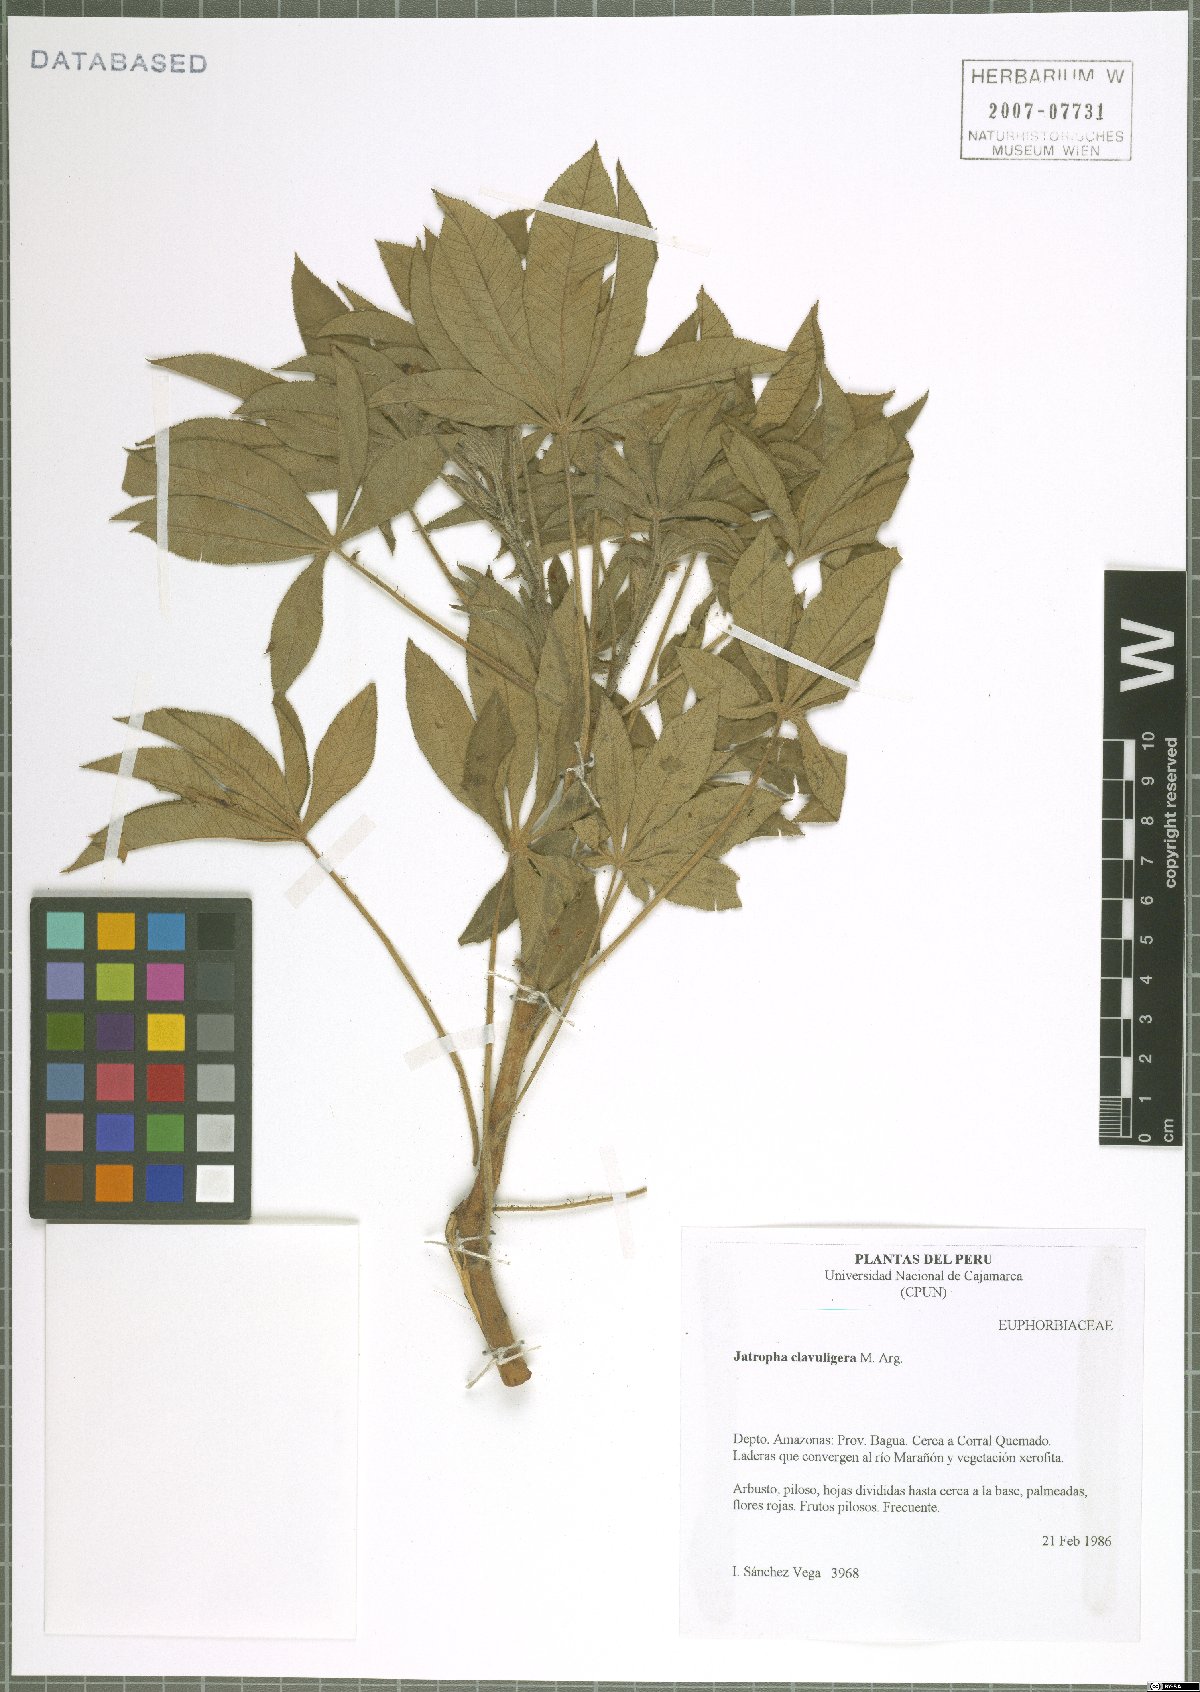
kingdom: Plantae
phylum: Tracheophyta
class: Magnoliopsida
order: Malpighiales
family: Euphorbiaceae
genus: Jatropha
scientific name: Jatropha clavuligera
